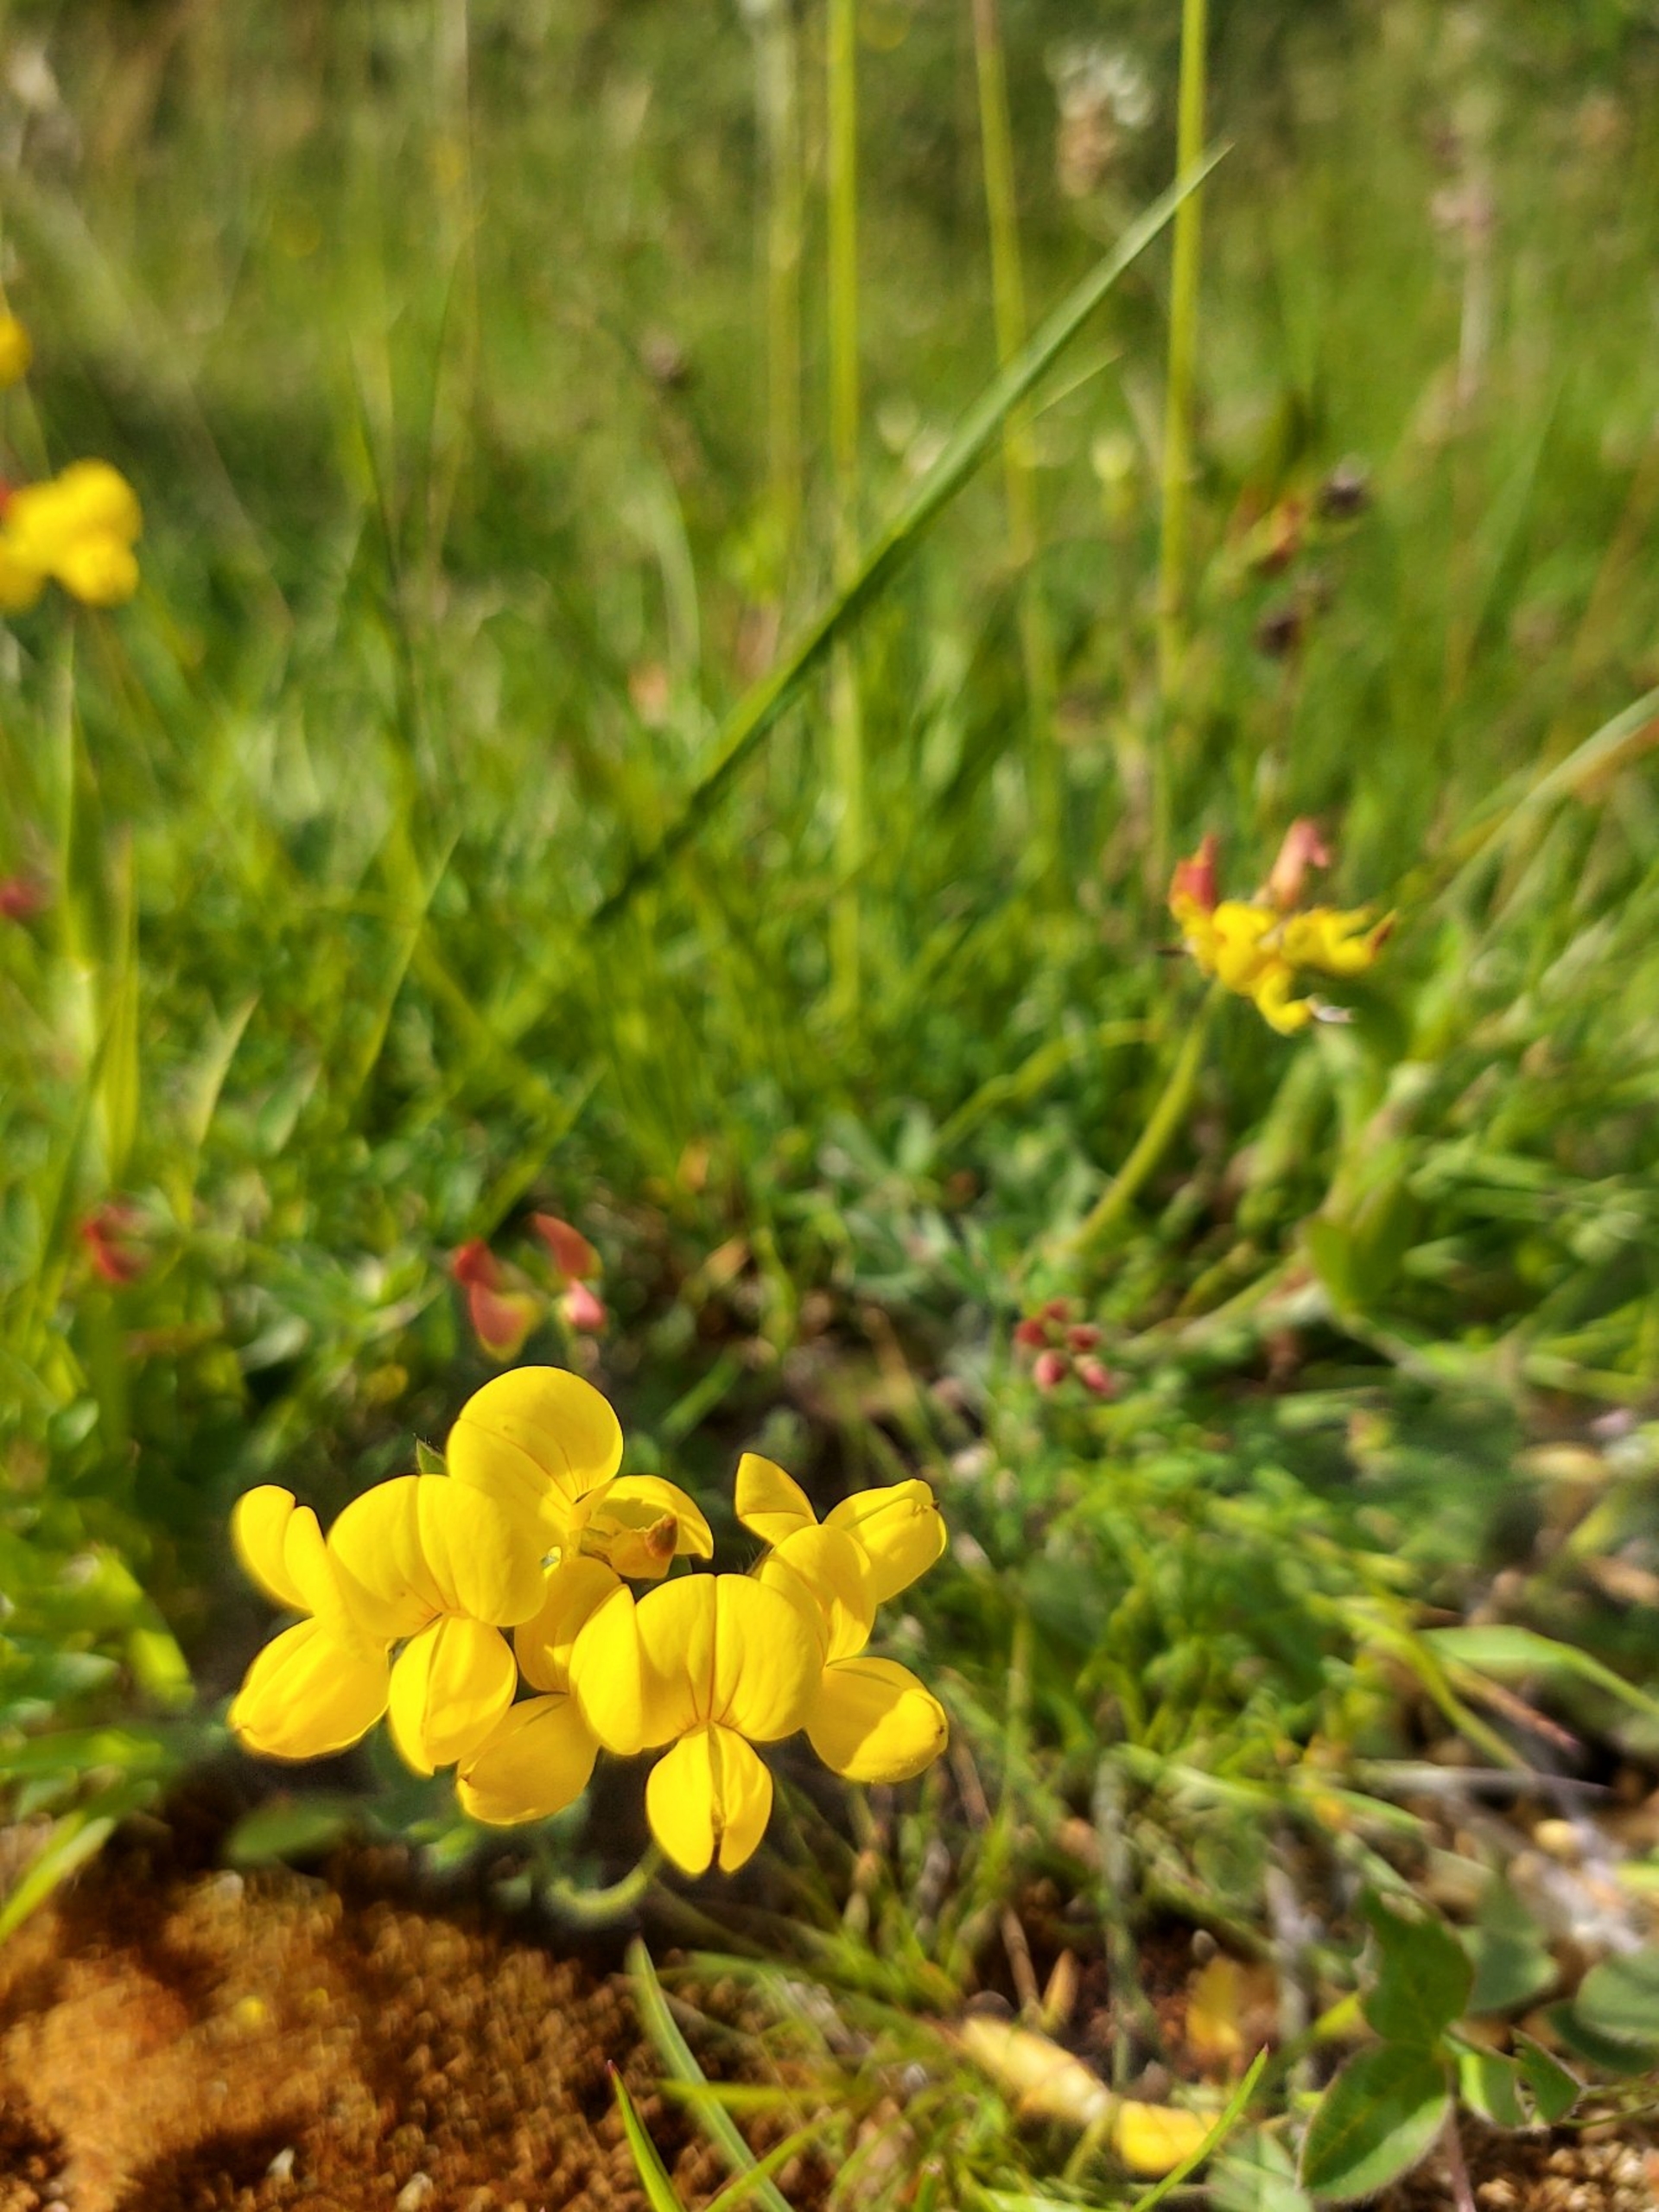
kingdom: Plantae
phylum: Tracheophyta
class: Magnoliopsida
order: Fabales
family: Fabaceae
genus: Lotus
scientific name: Lotus corniculatus
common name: Almindelig kællingetand
